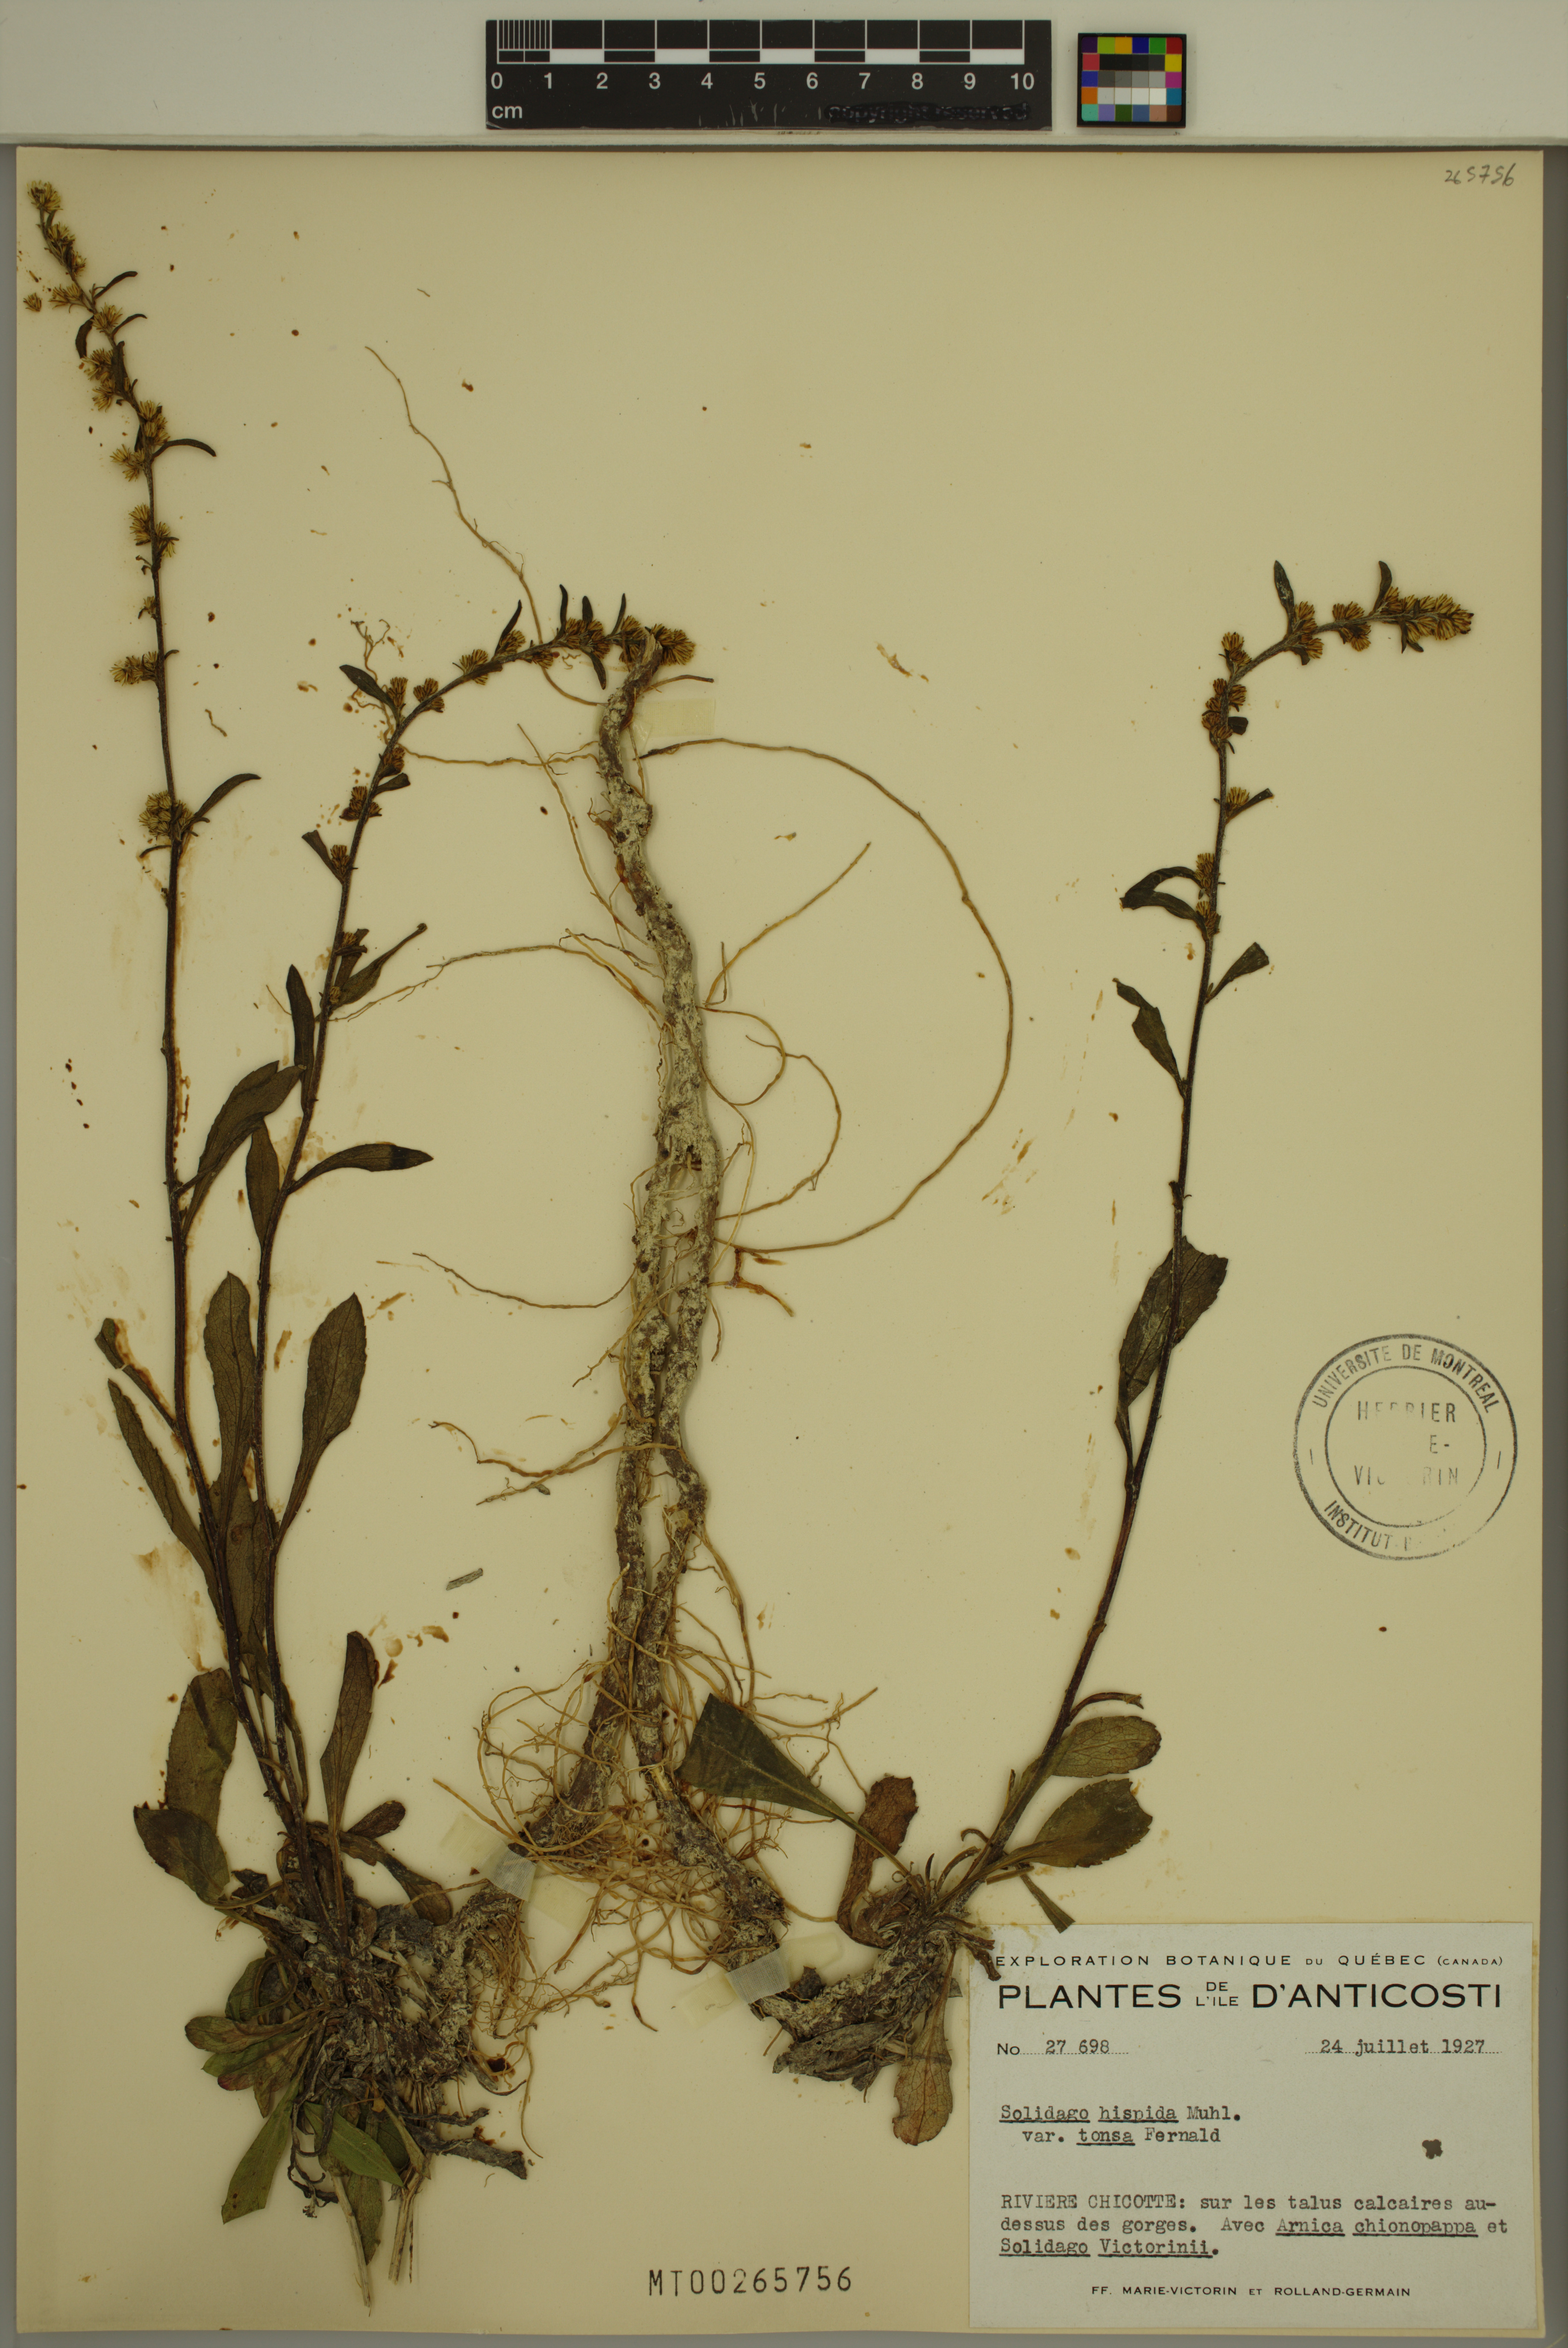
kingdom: Plantae
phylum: Tracheophyta
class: Magnoliopsida
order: Asterales
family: Asteraceae
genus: Solidago
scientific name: Solidago hispida
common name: Hairy goldenrod
